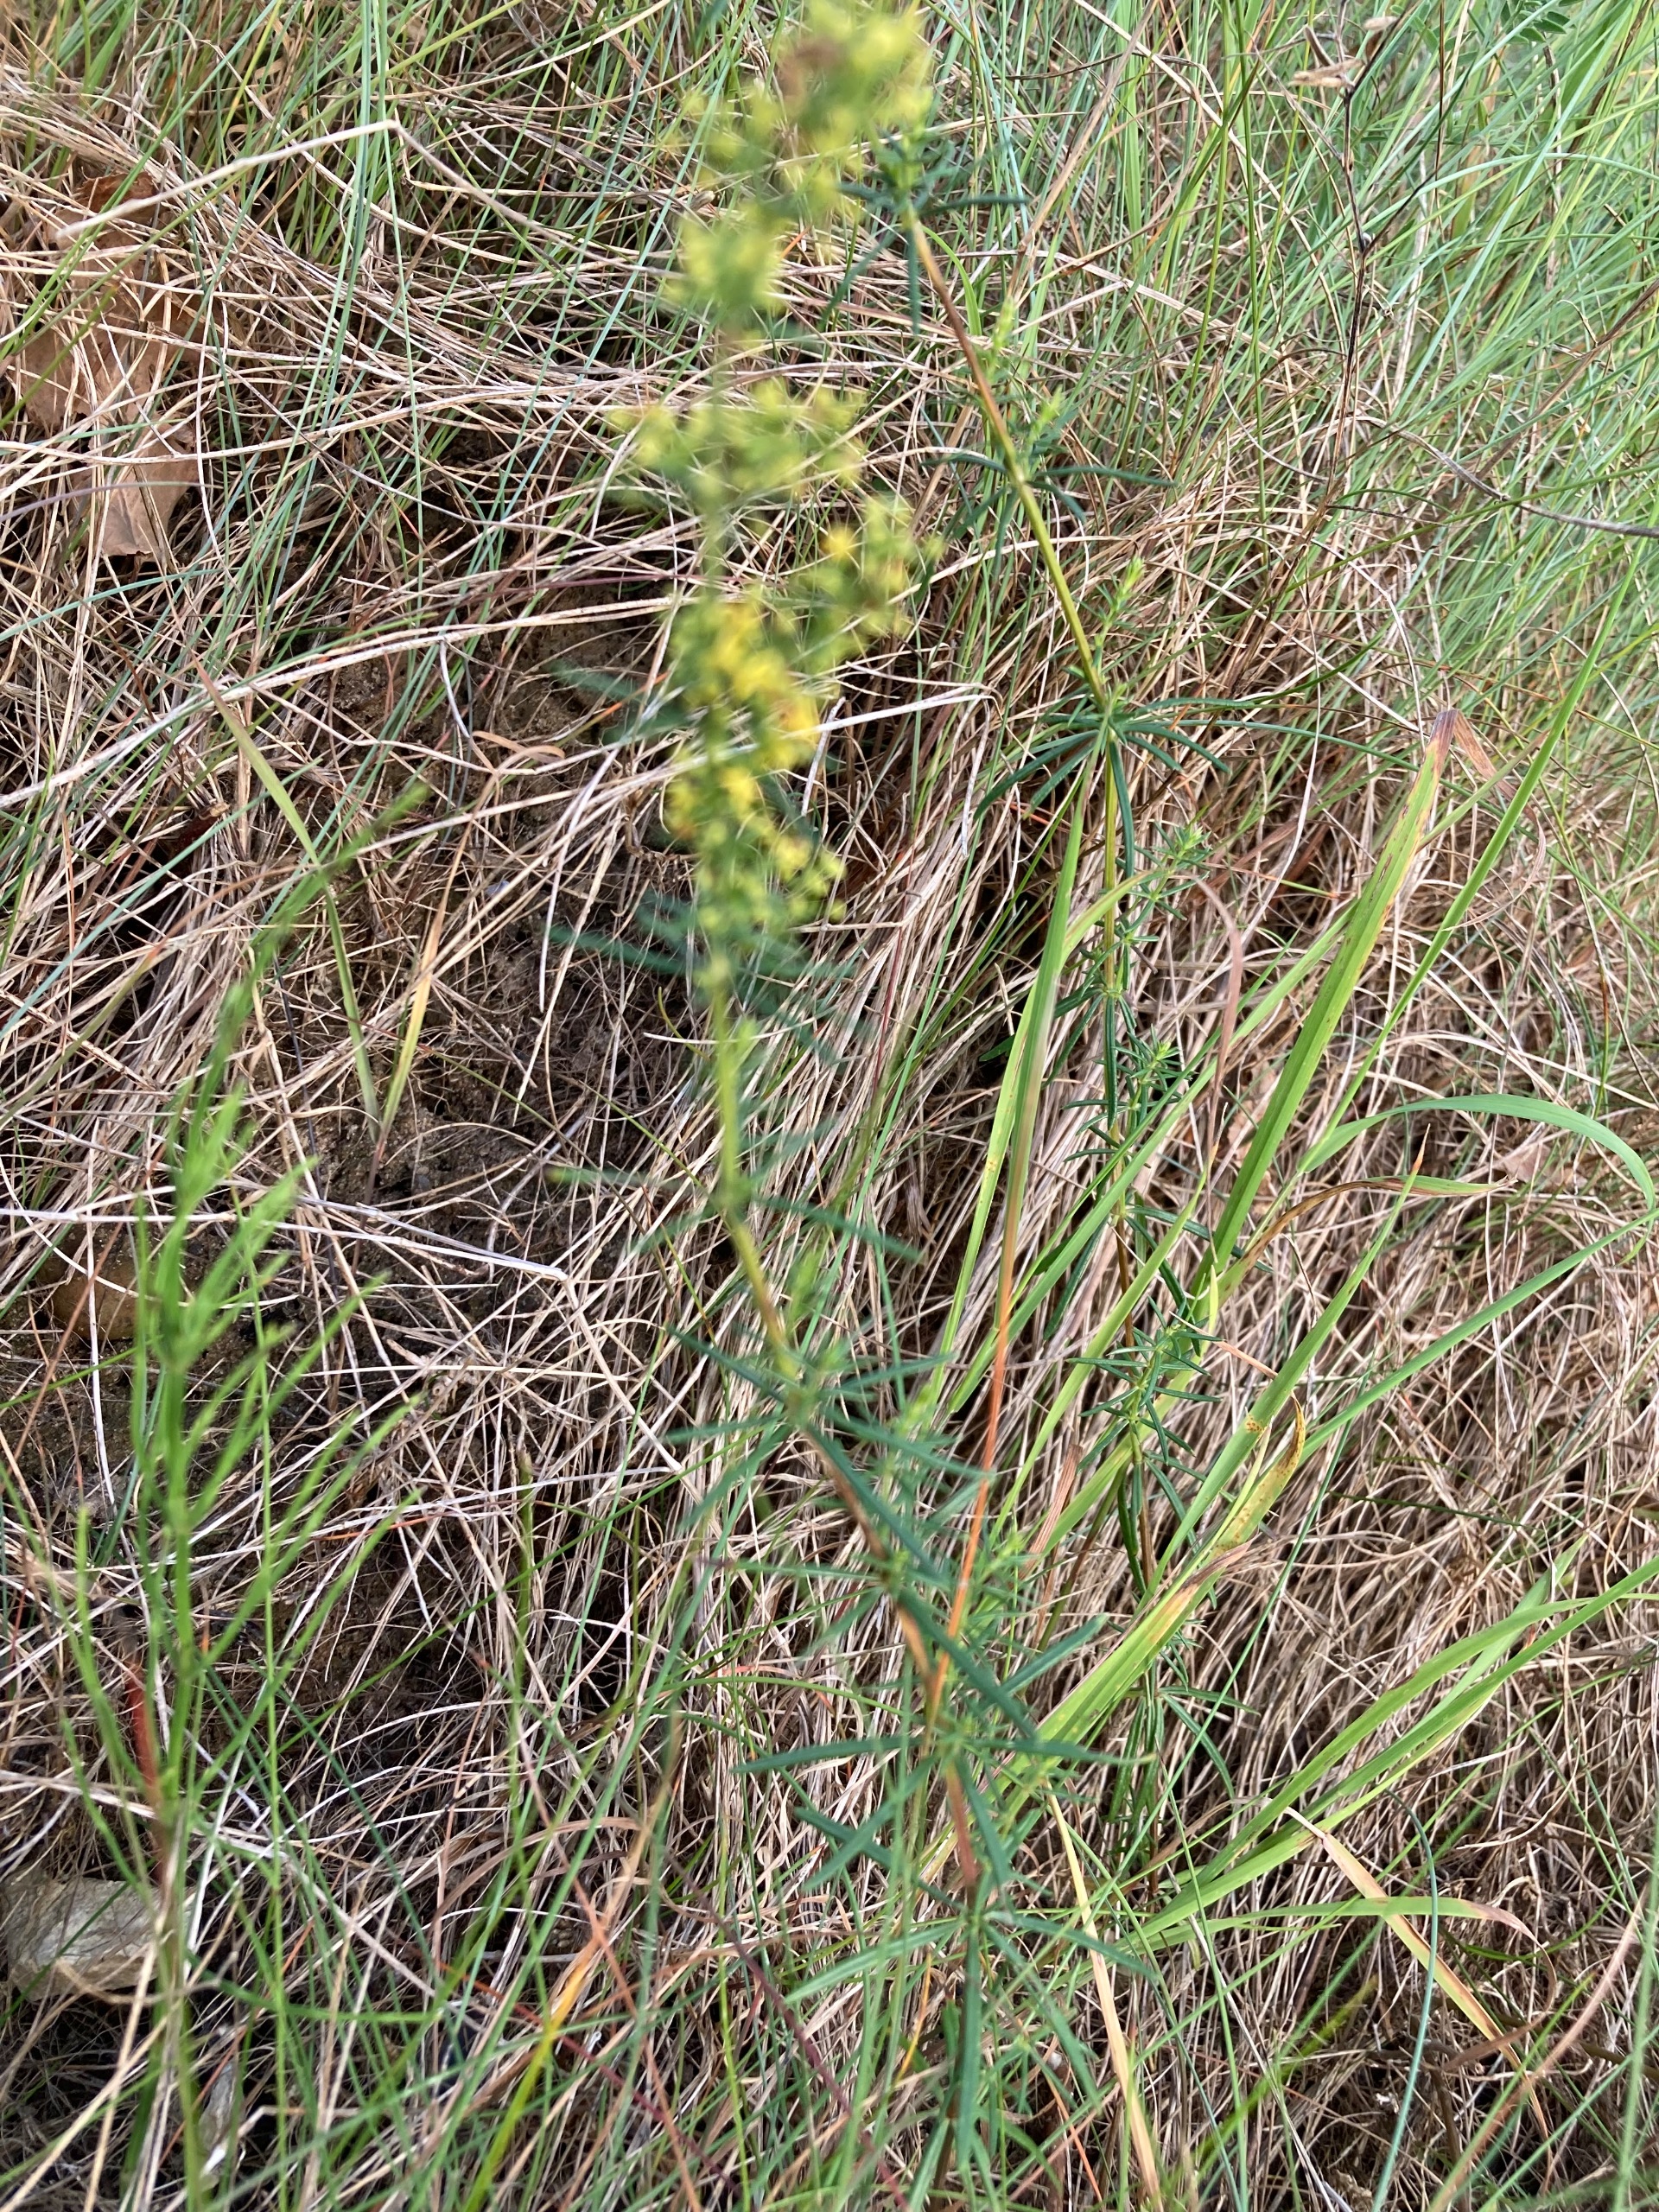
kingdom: Plantae
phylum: Tracheophyta
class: Magnoliopsida
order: Gentianales
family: Rubiaceae
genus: Galium
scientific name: Galium verum
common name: Gul snerre
